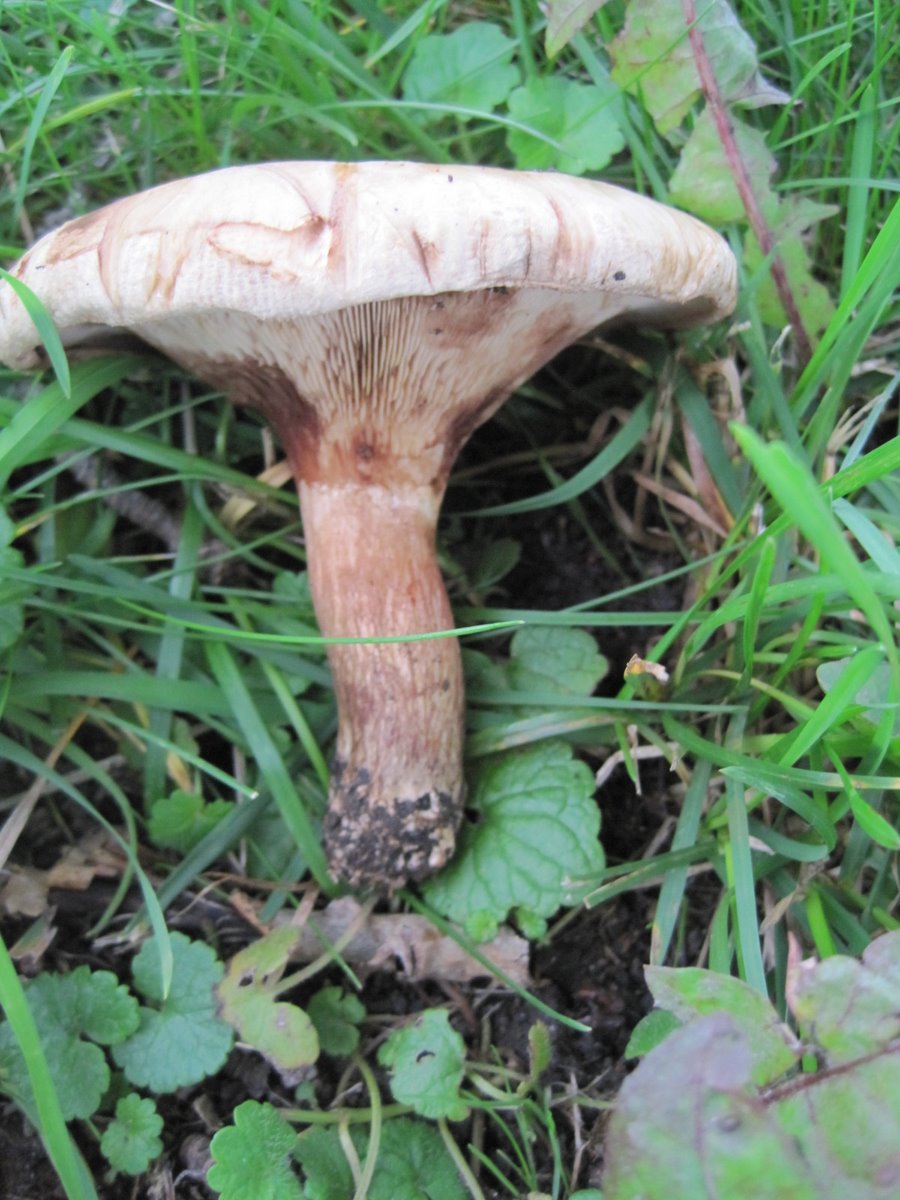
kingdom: Fungi
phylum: Basidiomycota
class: Agaricomycetes
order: Boletales
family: Paxillaceae
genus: Paxillus
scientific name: Paxillus involutus
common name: almindelig netbladhat
